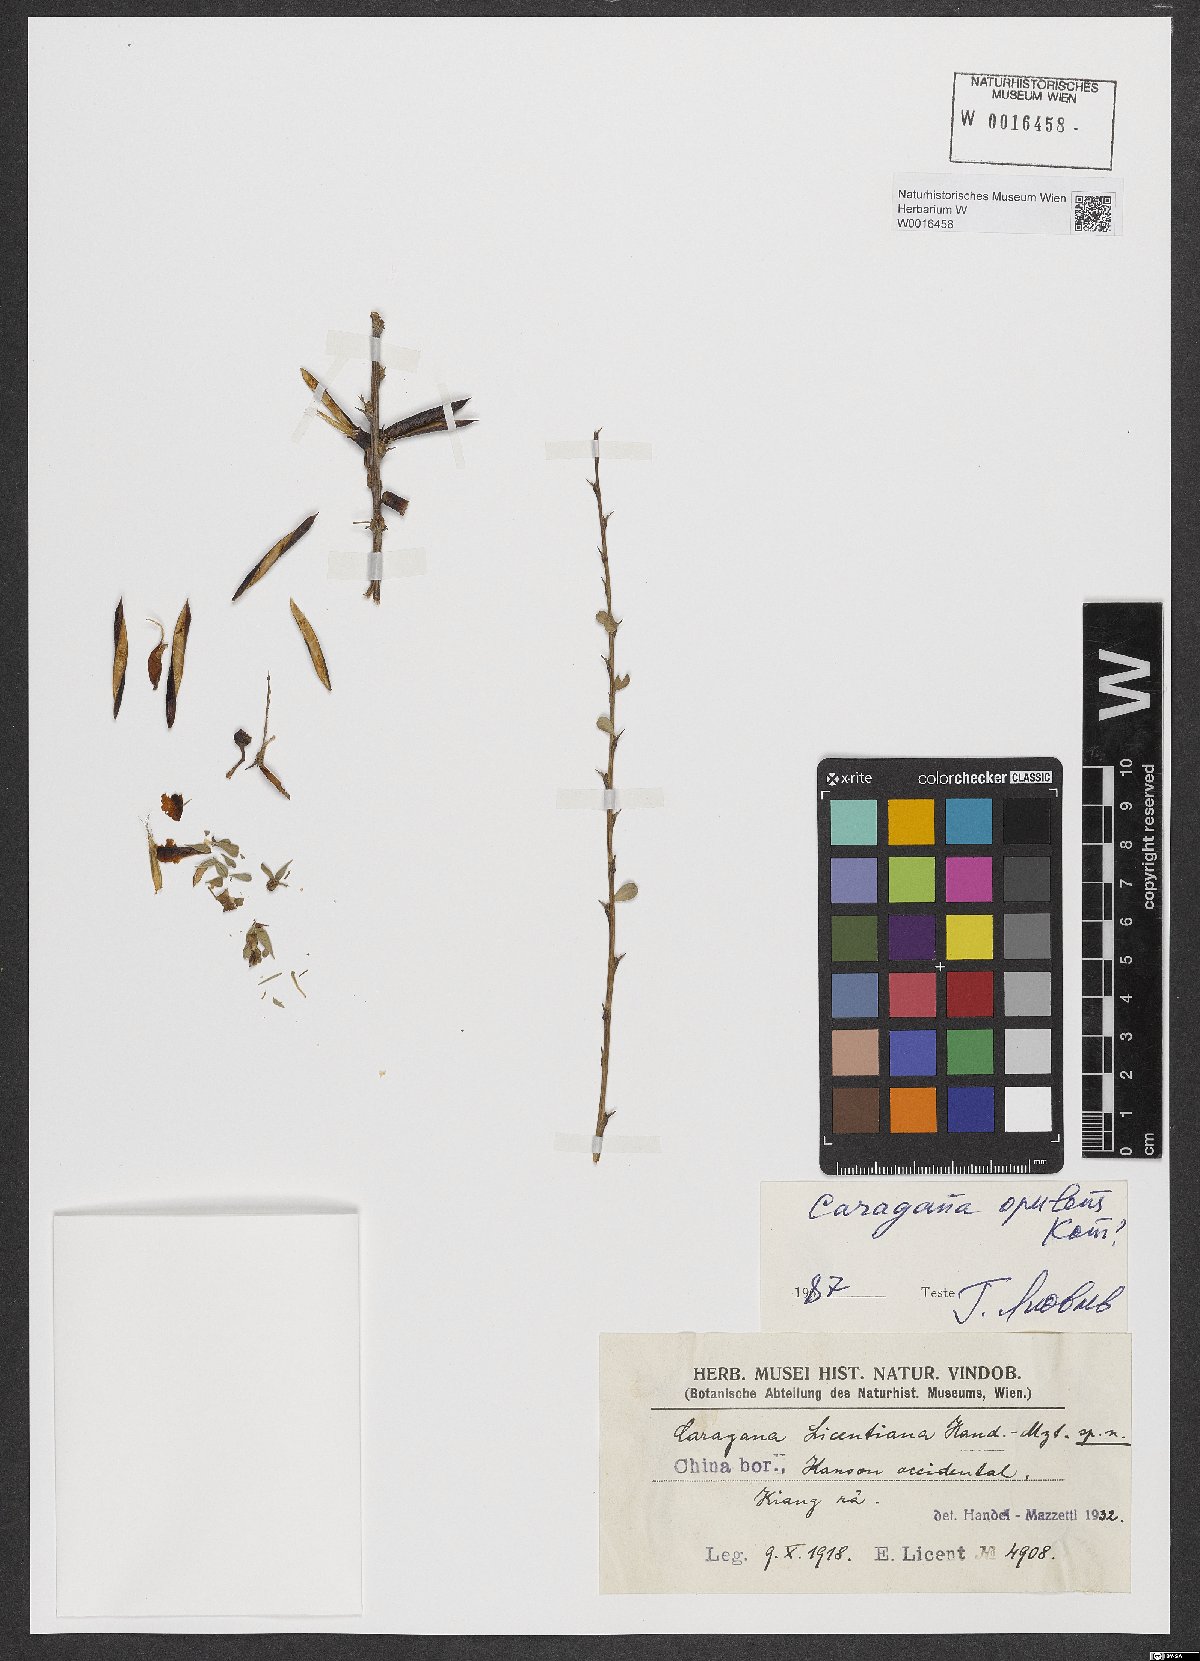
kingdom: Plantae
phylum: Tracheophyta
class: Magnoliopsida
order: Fabales
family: Fabaceae
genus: Caragana
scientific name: Caragana opulens
